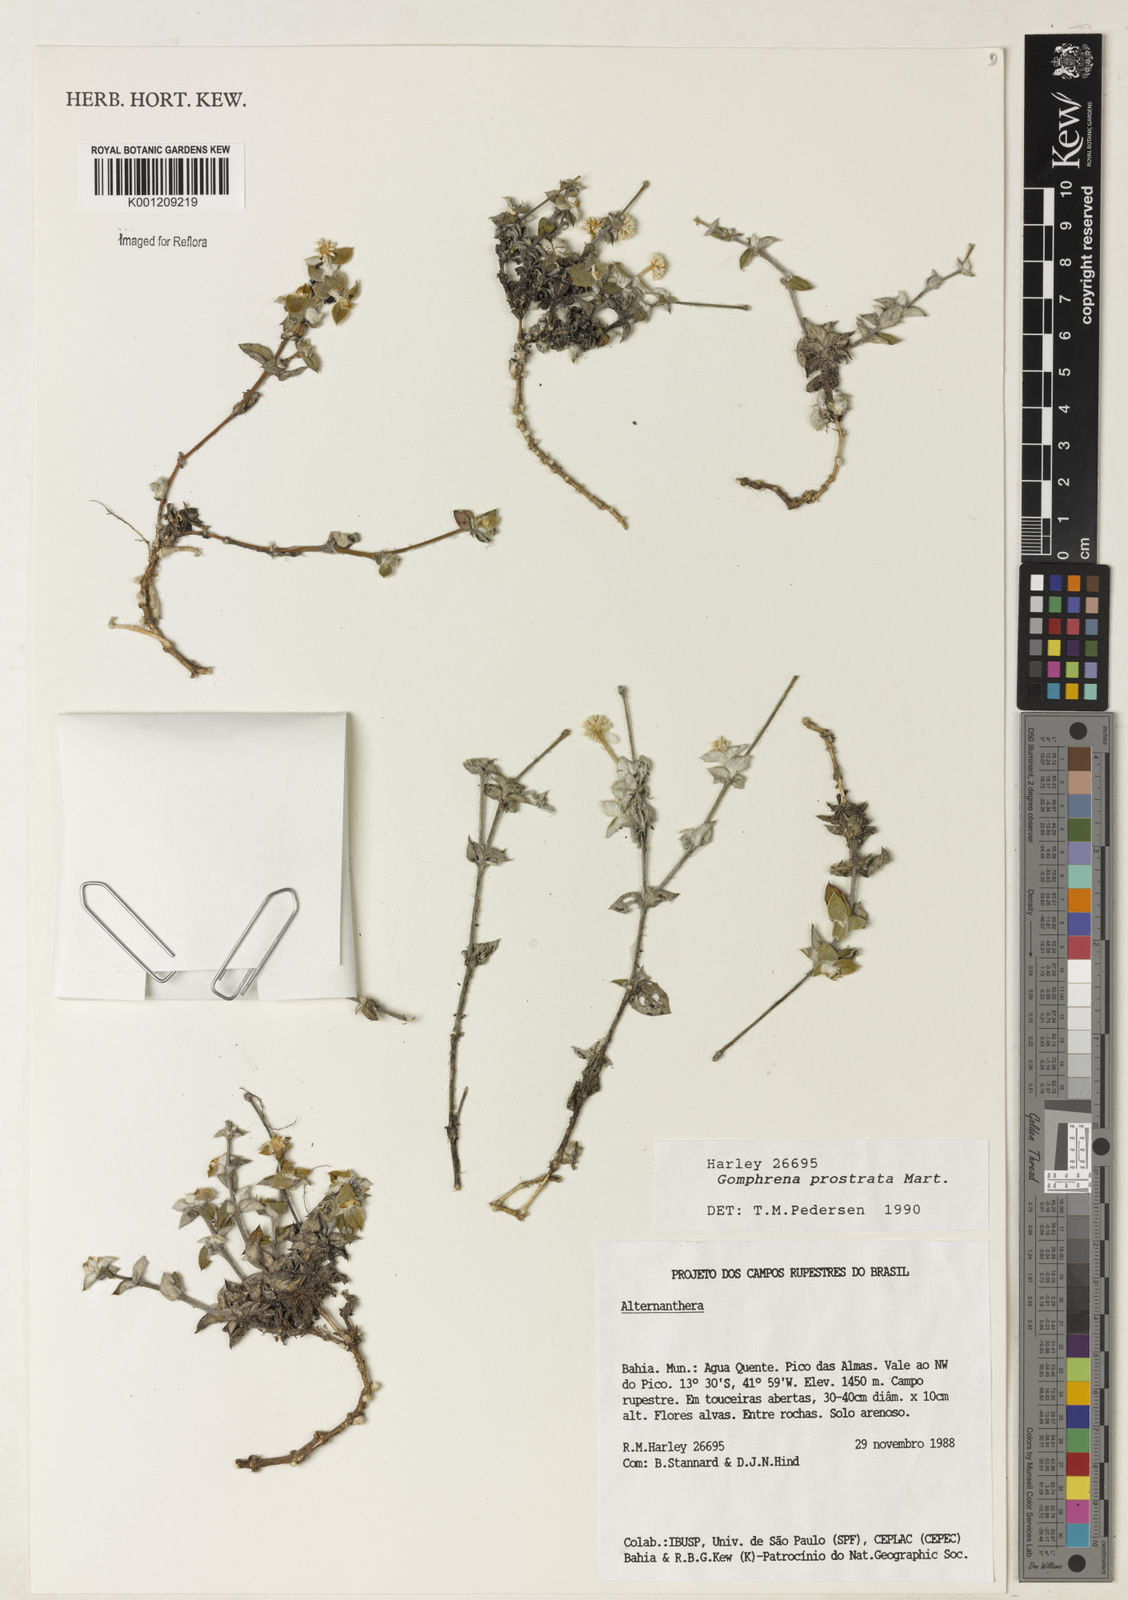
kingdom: Plantae
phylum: Tracheophyta
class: Magnoliopsida
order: Caryophyllales
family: Amaranthaceae
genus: Gomphrena
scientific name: Gomphrena prostrata
